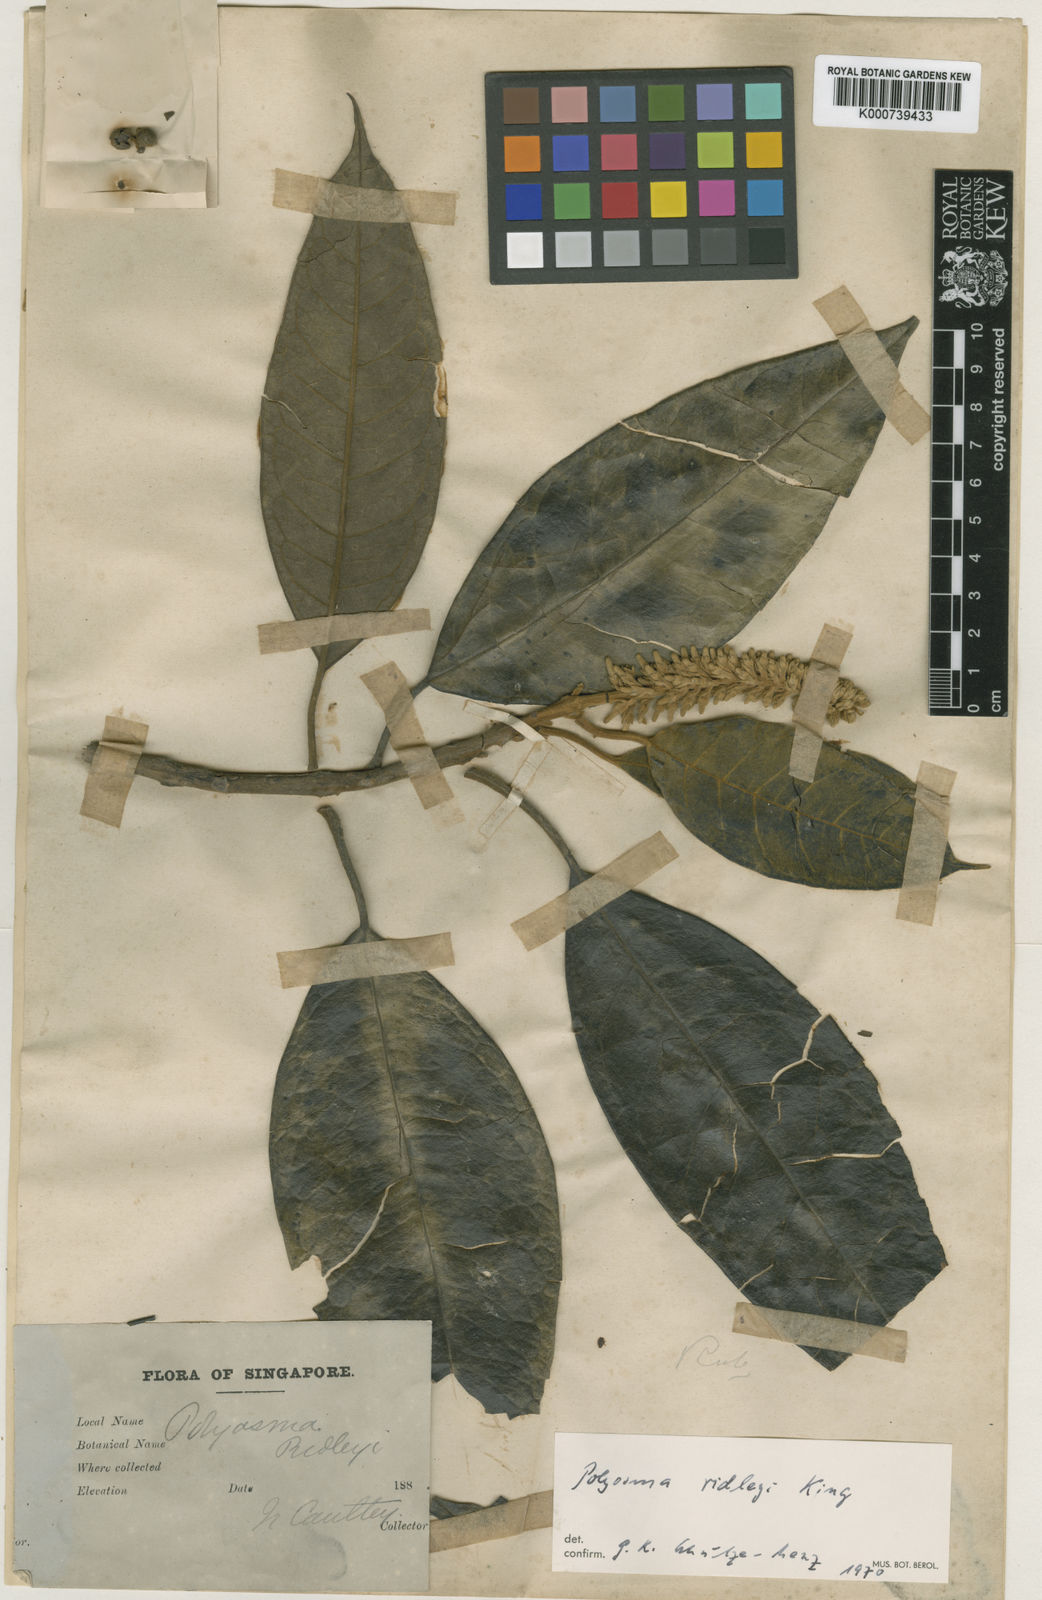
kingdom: Plantae
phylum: Tracheophyta
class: Magnoliopsida
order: Escalloniales
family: Escalloniaceae
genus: Polyosma
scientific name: Polyosma ridleyi
